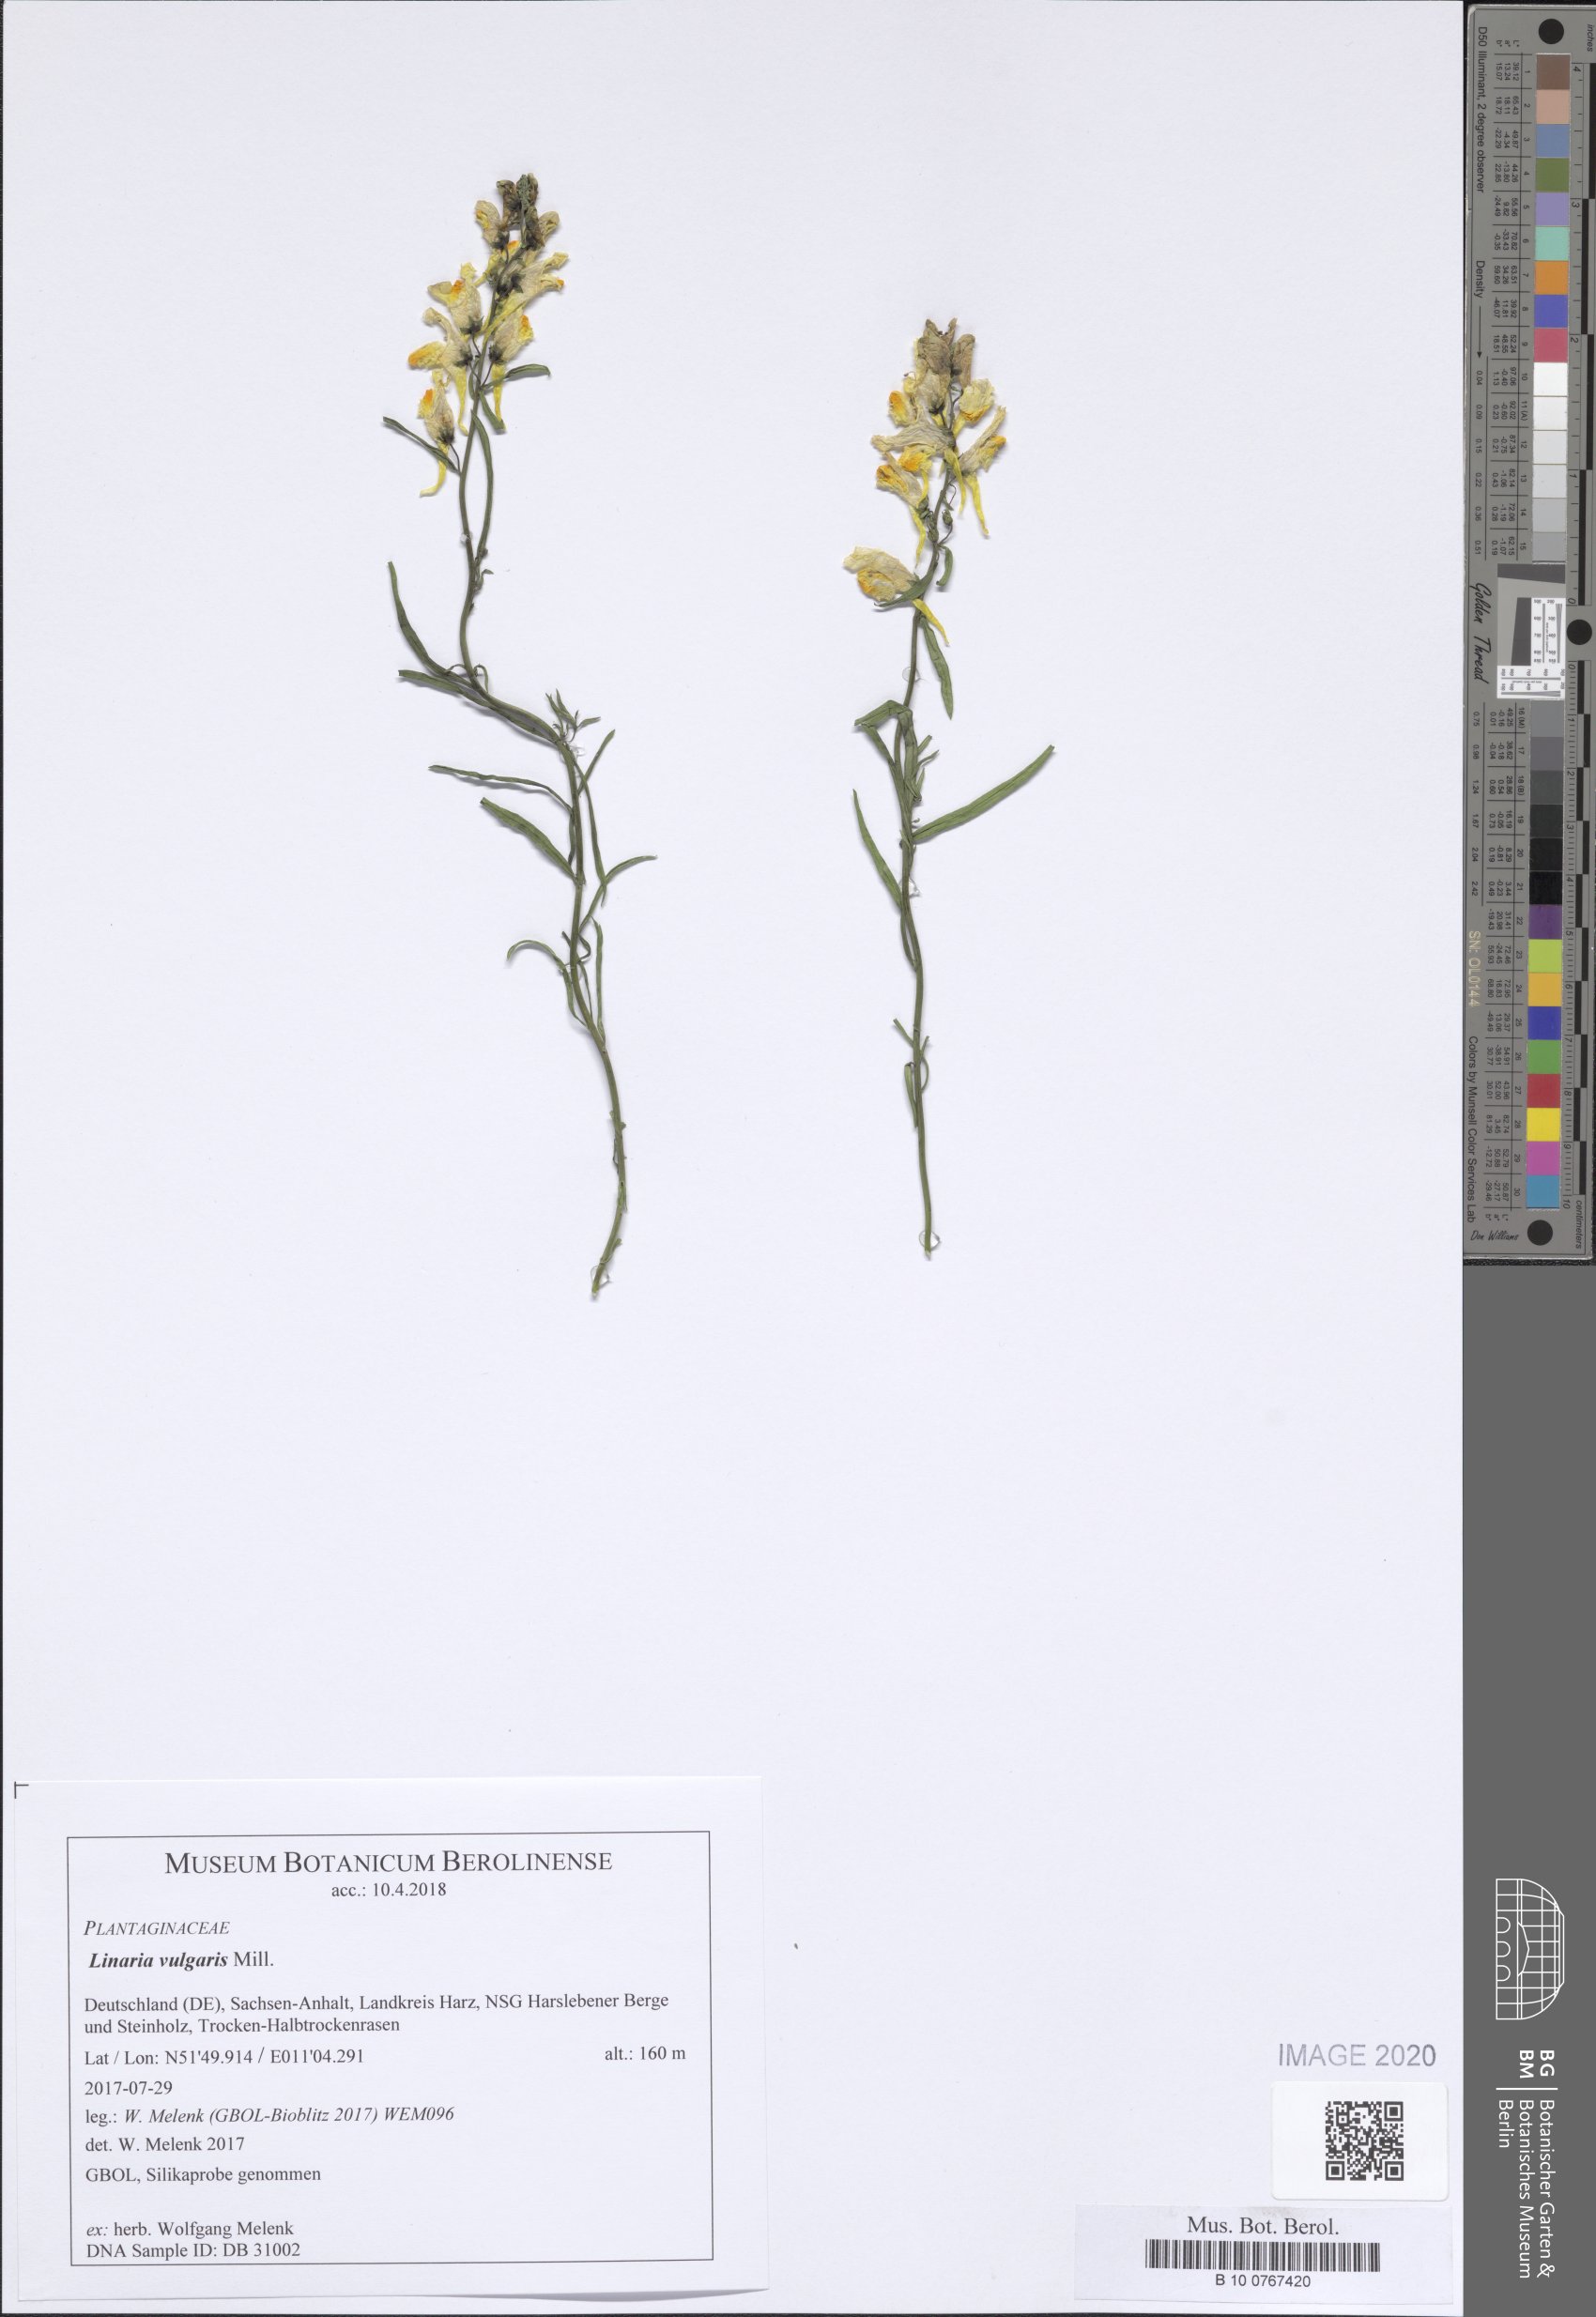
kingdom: Plantae
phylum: Tracheophyta
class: Magnoliopsida
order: Lamiales
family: Plantaginaceae
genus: Linaria
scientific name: Linaria vulgaris
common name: Butter and eggs
